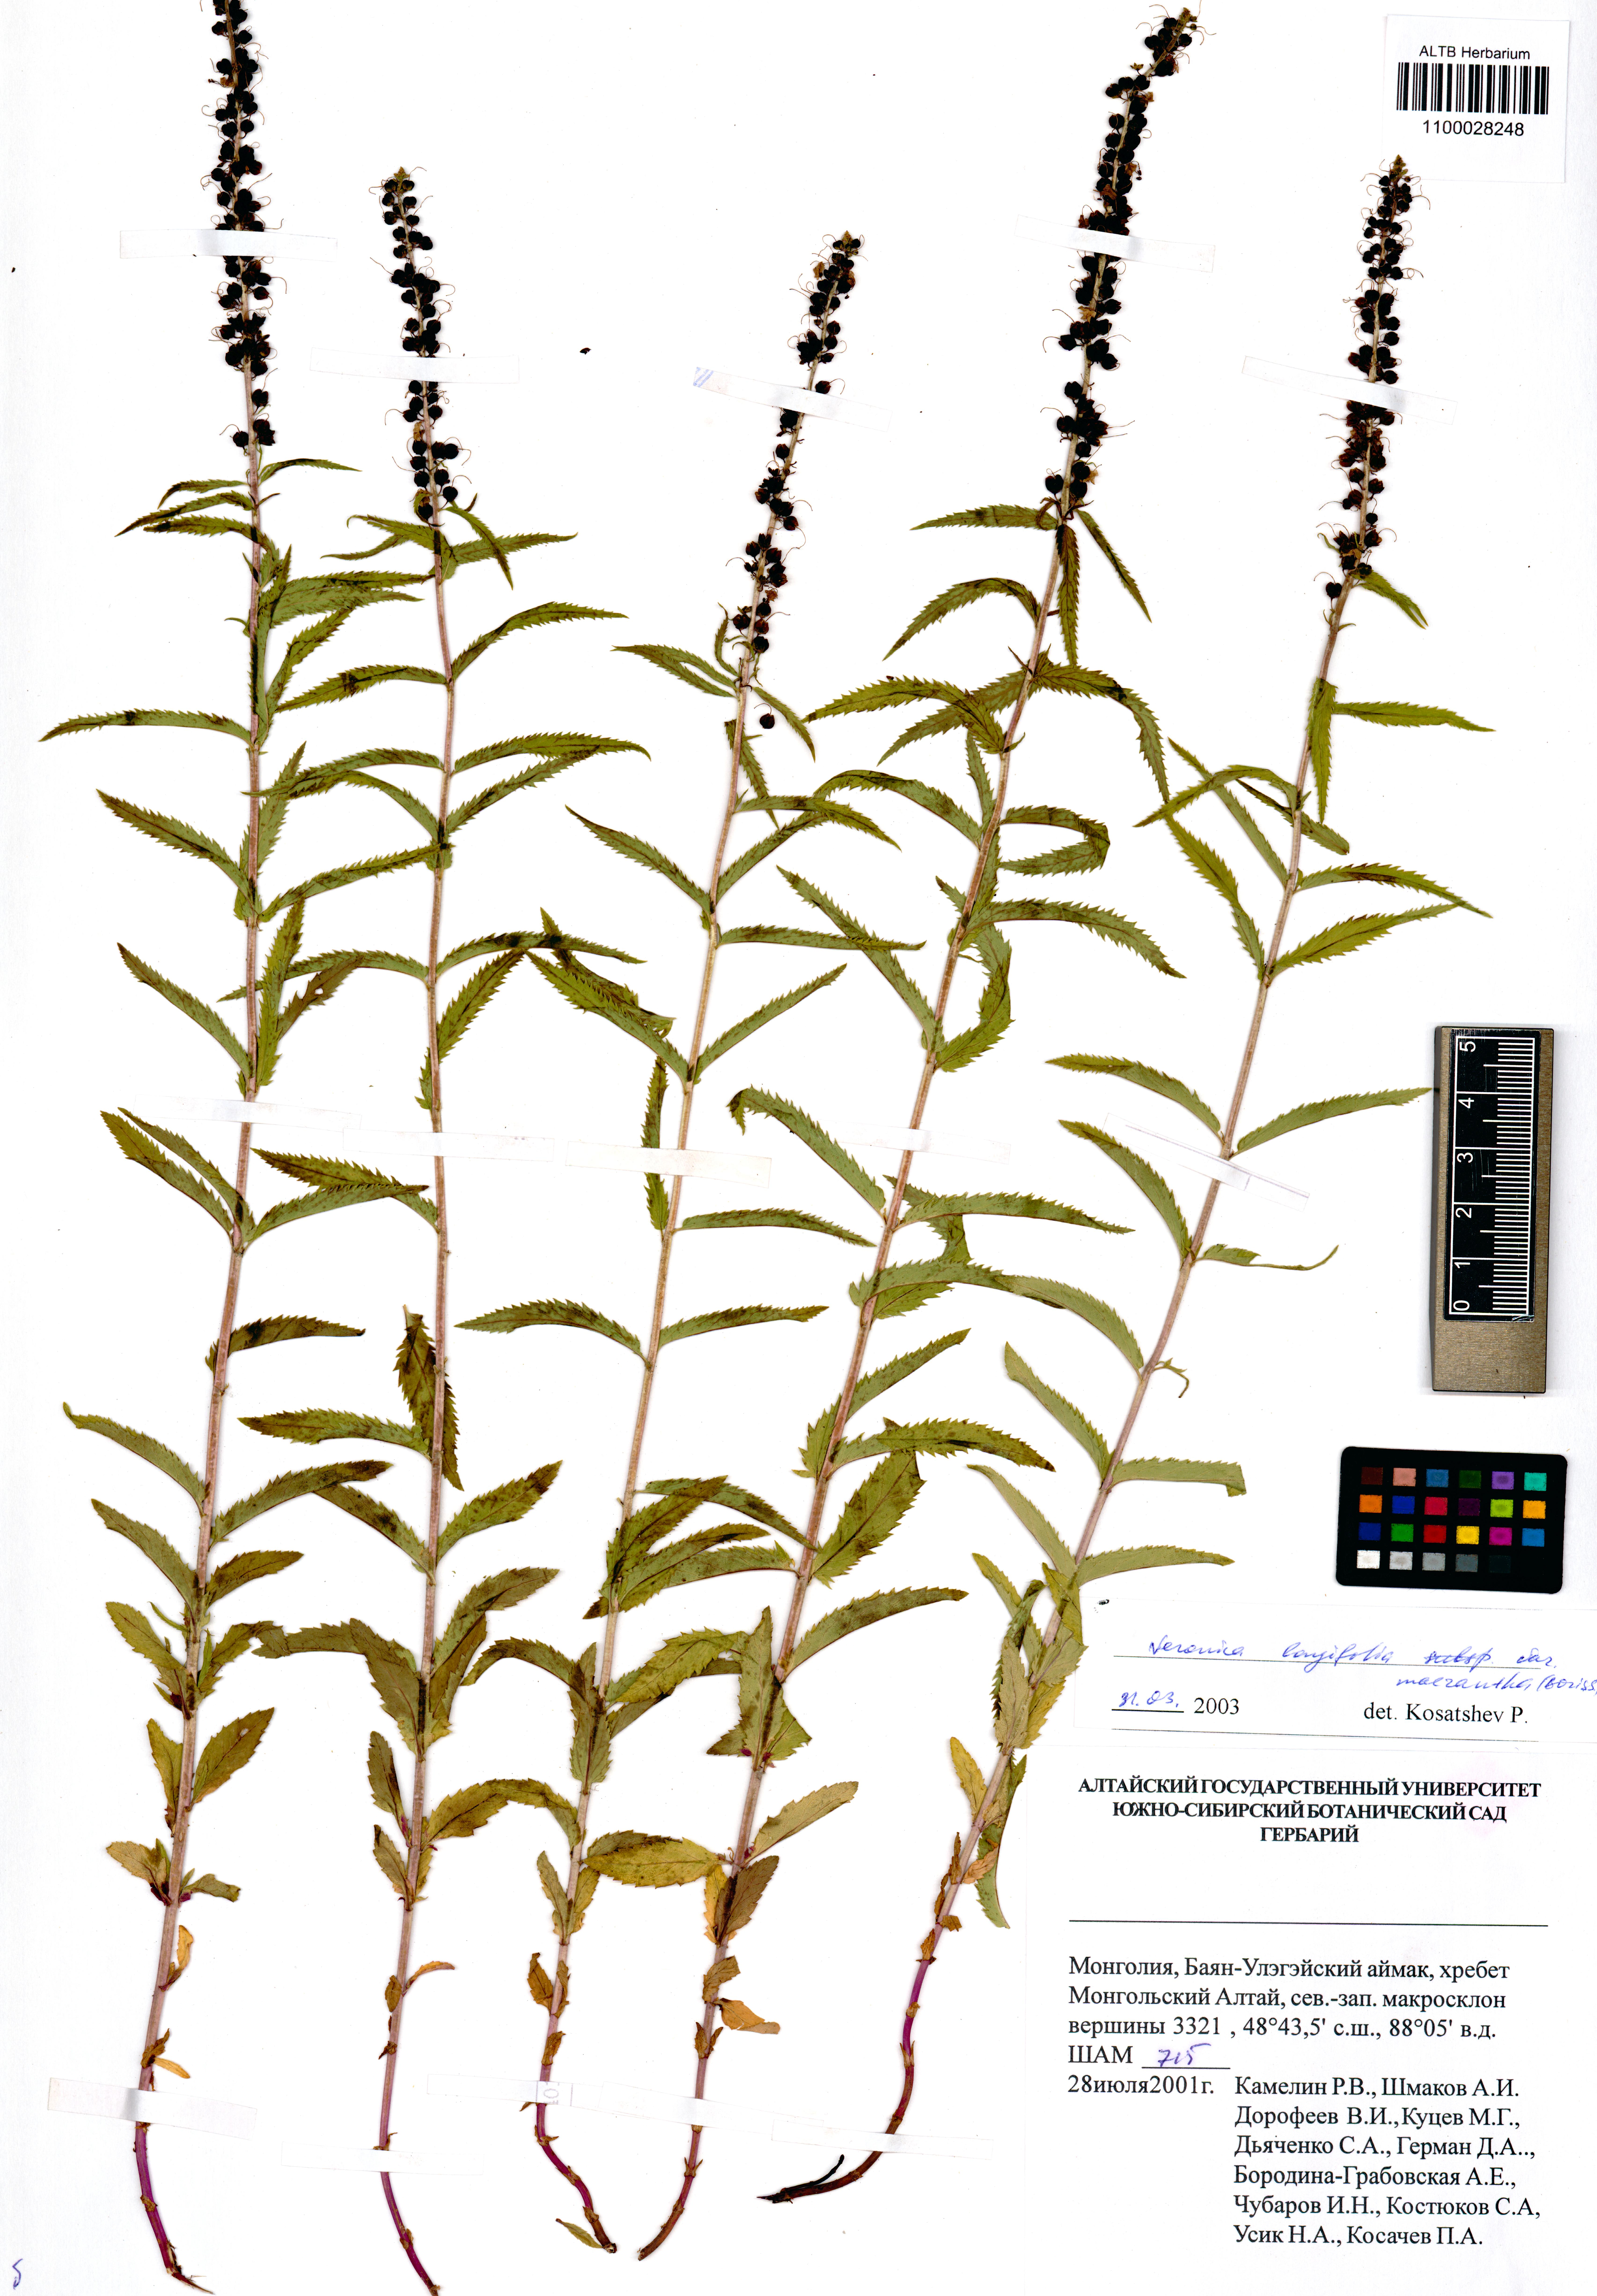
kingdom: Plantae
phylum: Tracheophyta
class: Magnoliopsida
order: Lamiales
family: Plantaginaceae
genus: Veronica
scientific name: Veronica longifolia
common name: Garden speedwell
